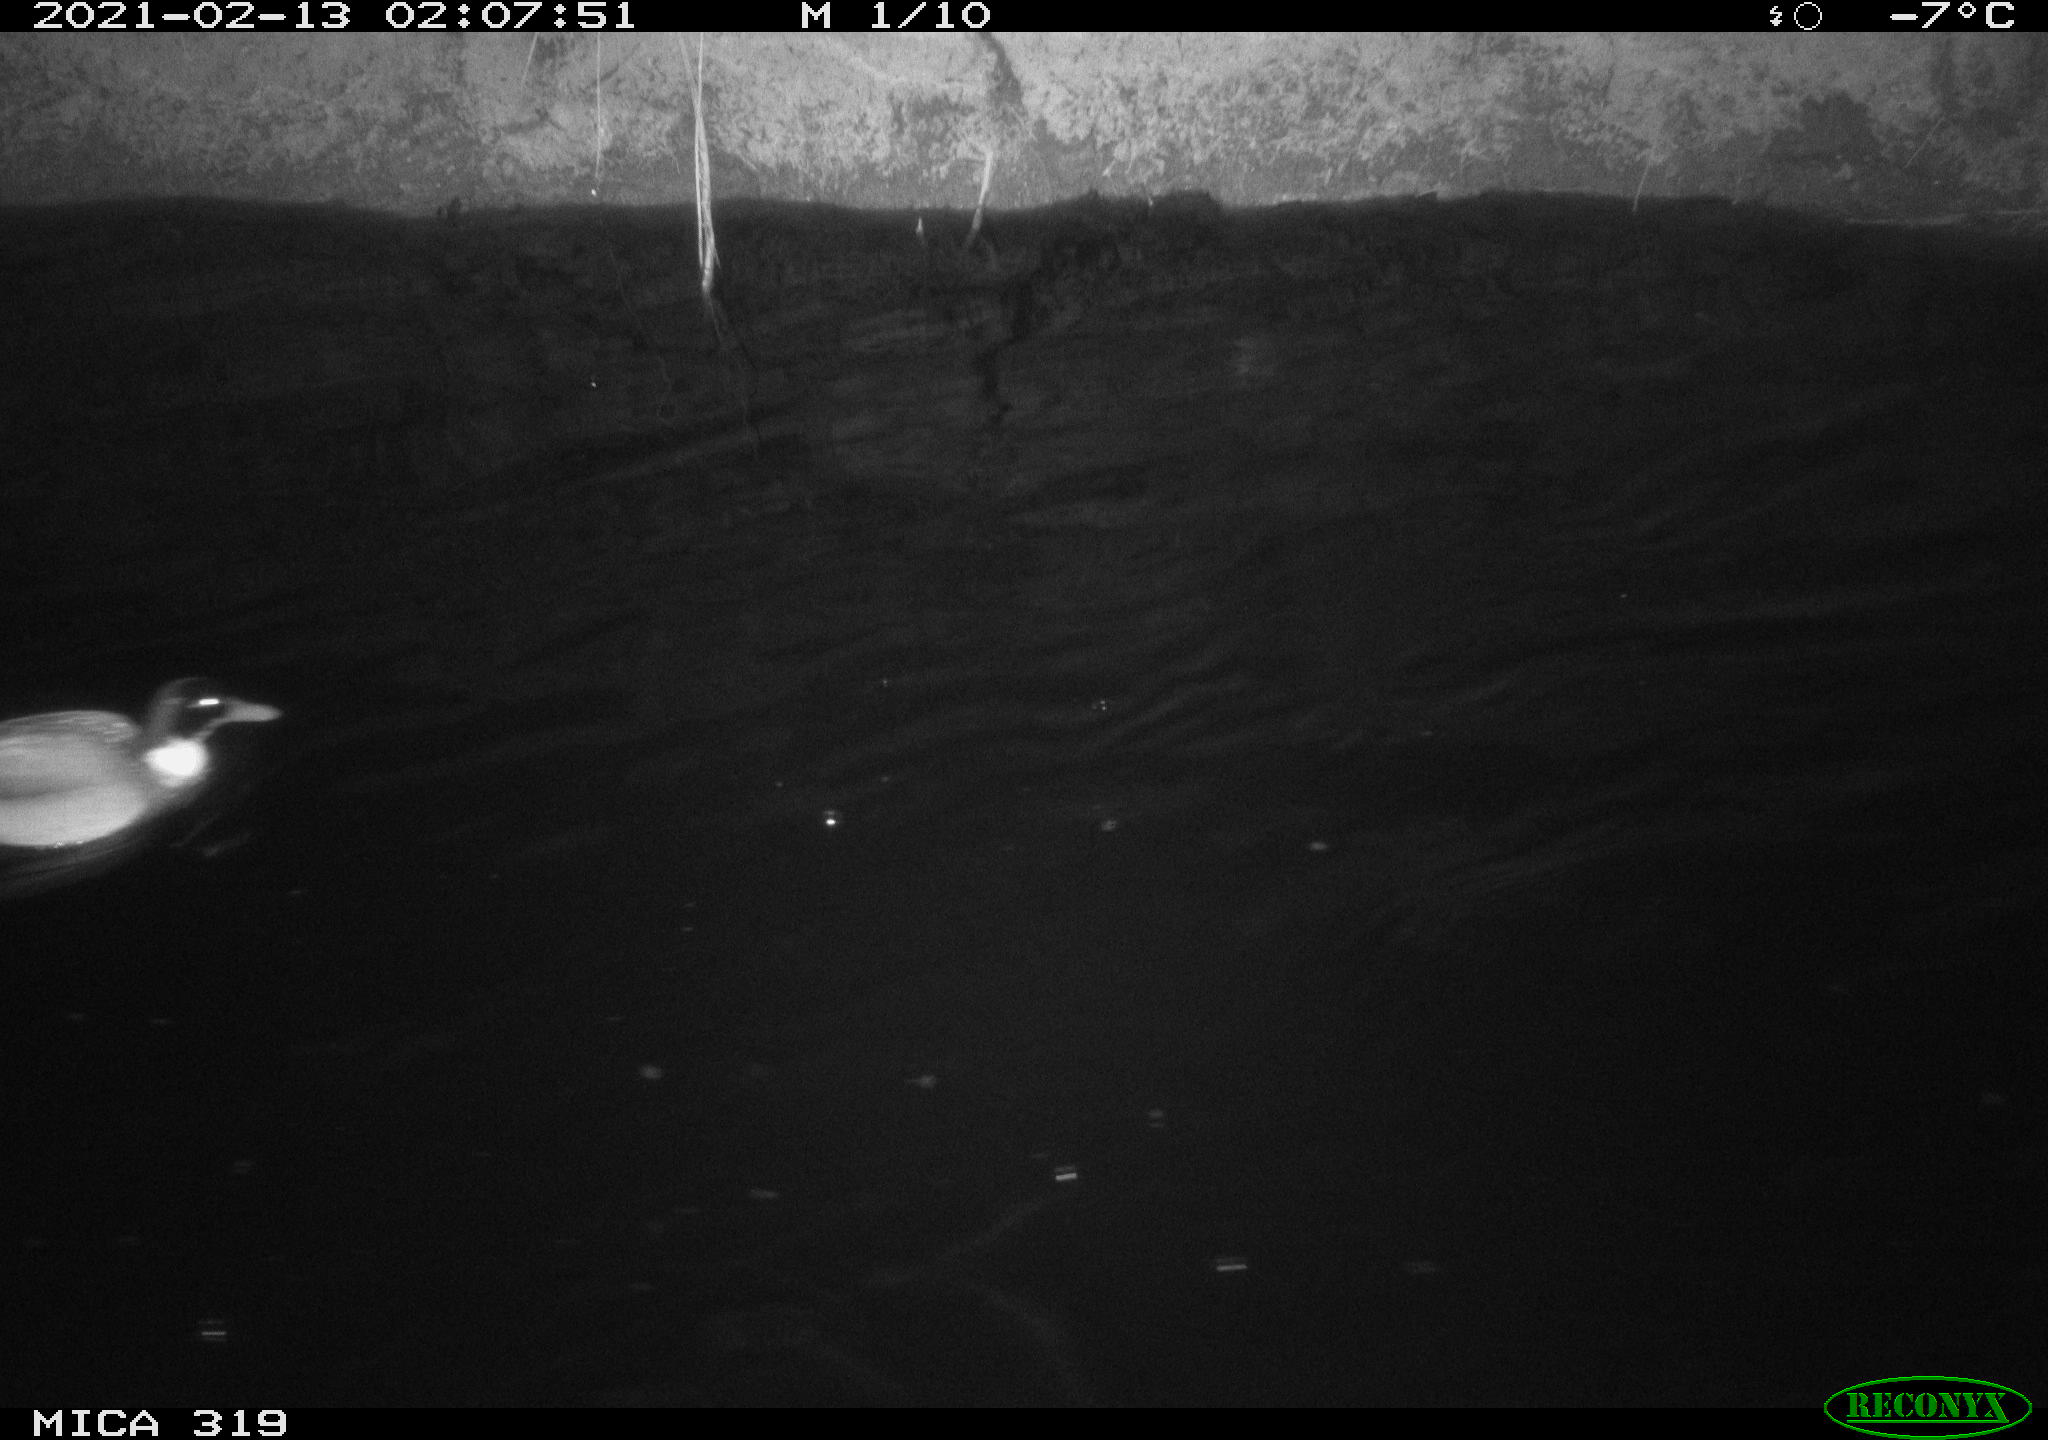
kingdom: Animalia
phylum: Chordata
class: Aves
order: Anseriformes
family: Anatidae
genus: Anas
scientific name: Anas platyrhynchos
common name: Mallard
